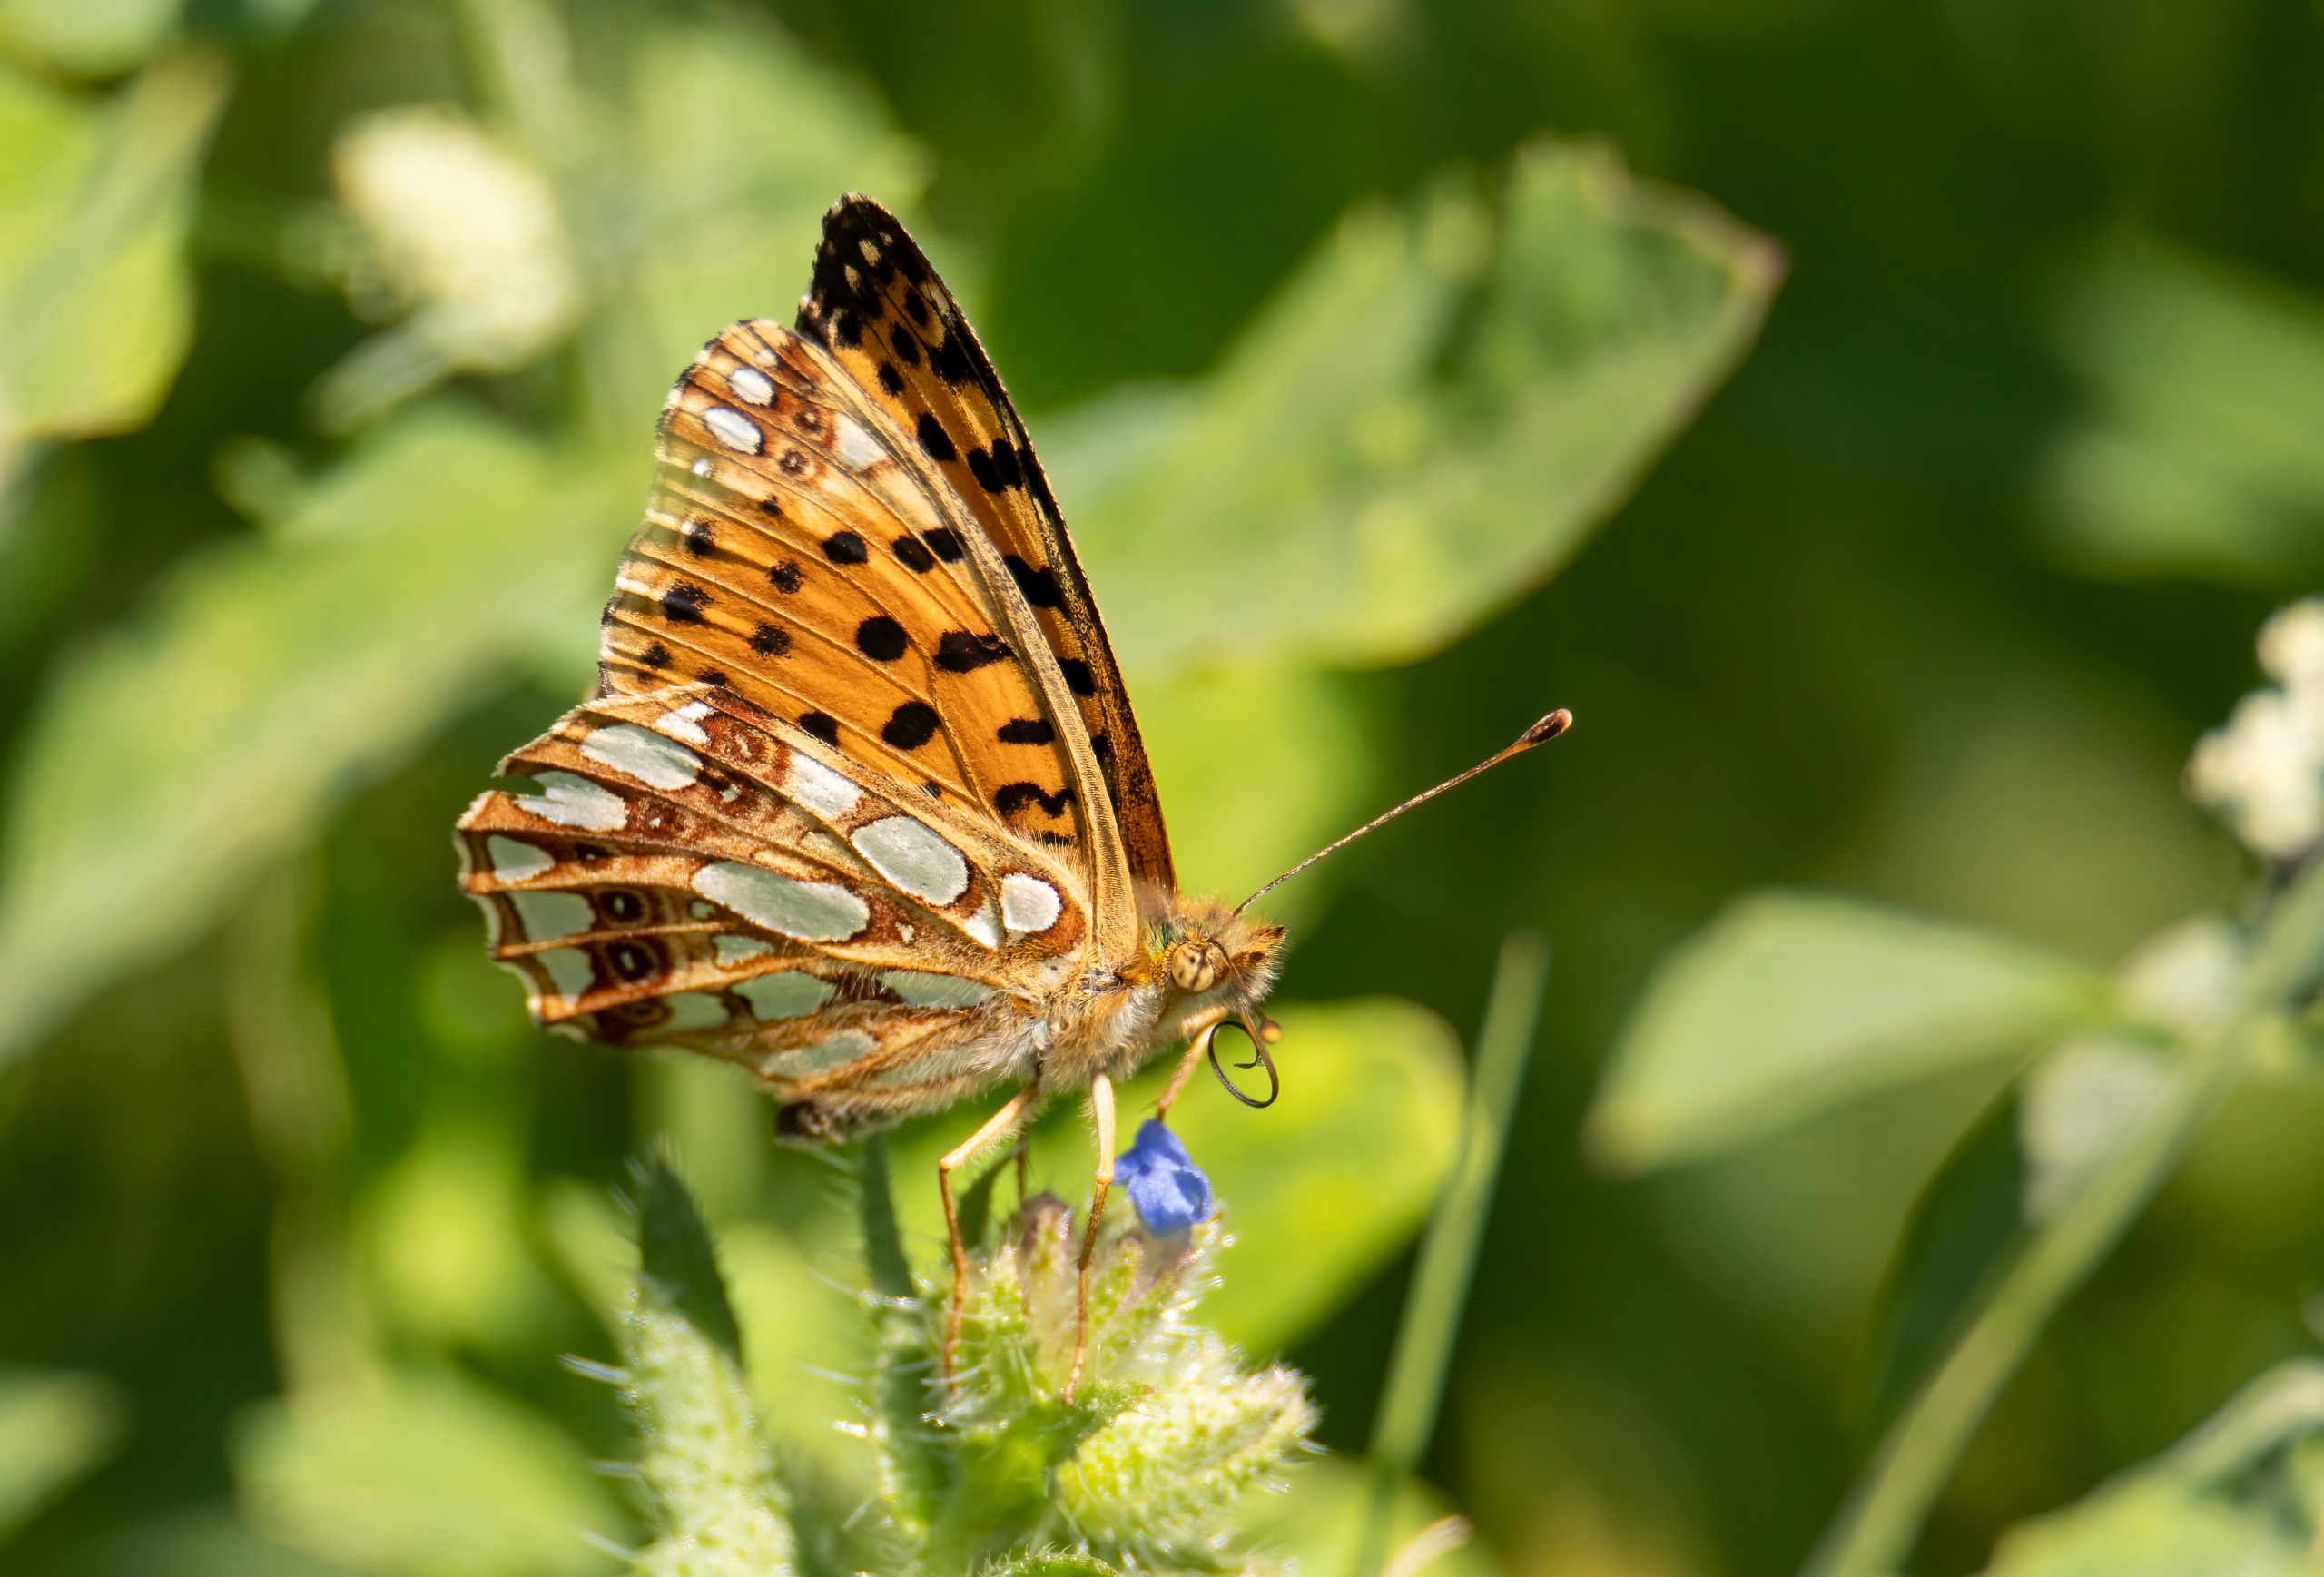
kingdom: Animalia
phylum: Arthropoda
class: Insecta
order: Lepidoptera
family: Nymphalidae
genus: Issoria
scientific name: Issoria lathonia
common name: Storplettet perlemorsommerfugl
